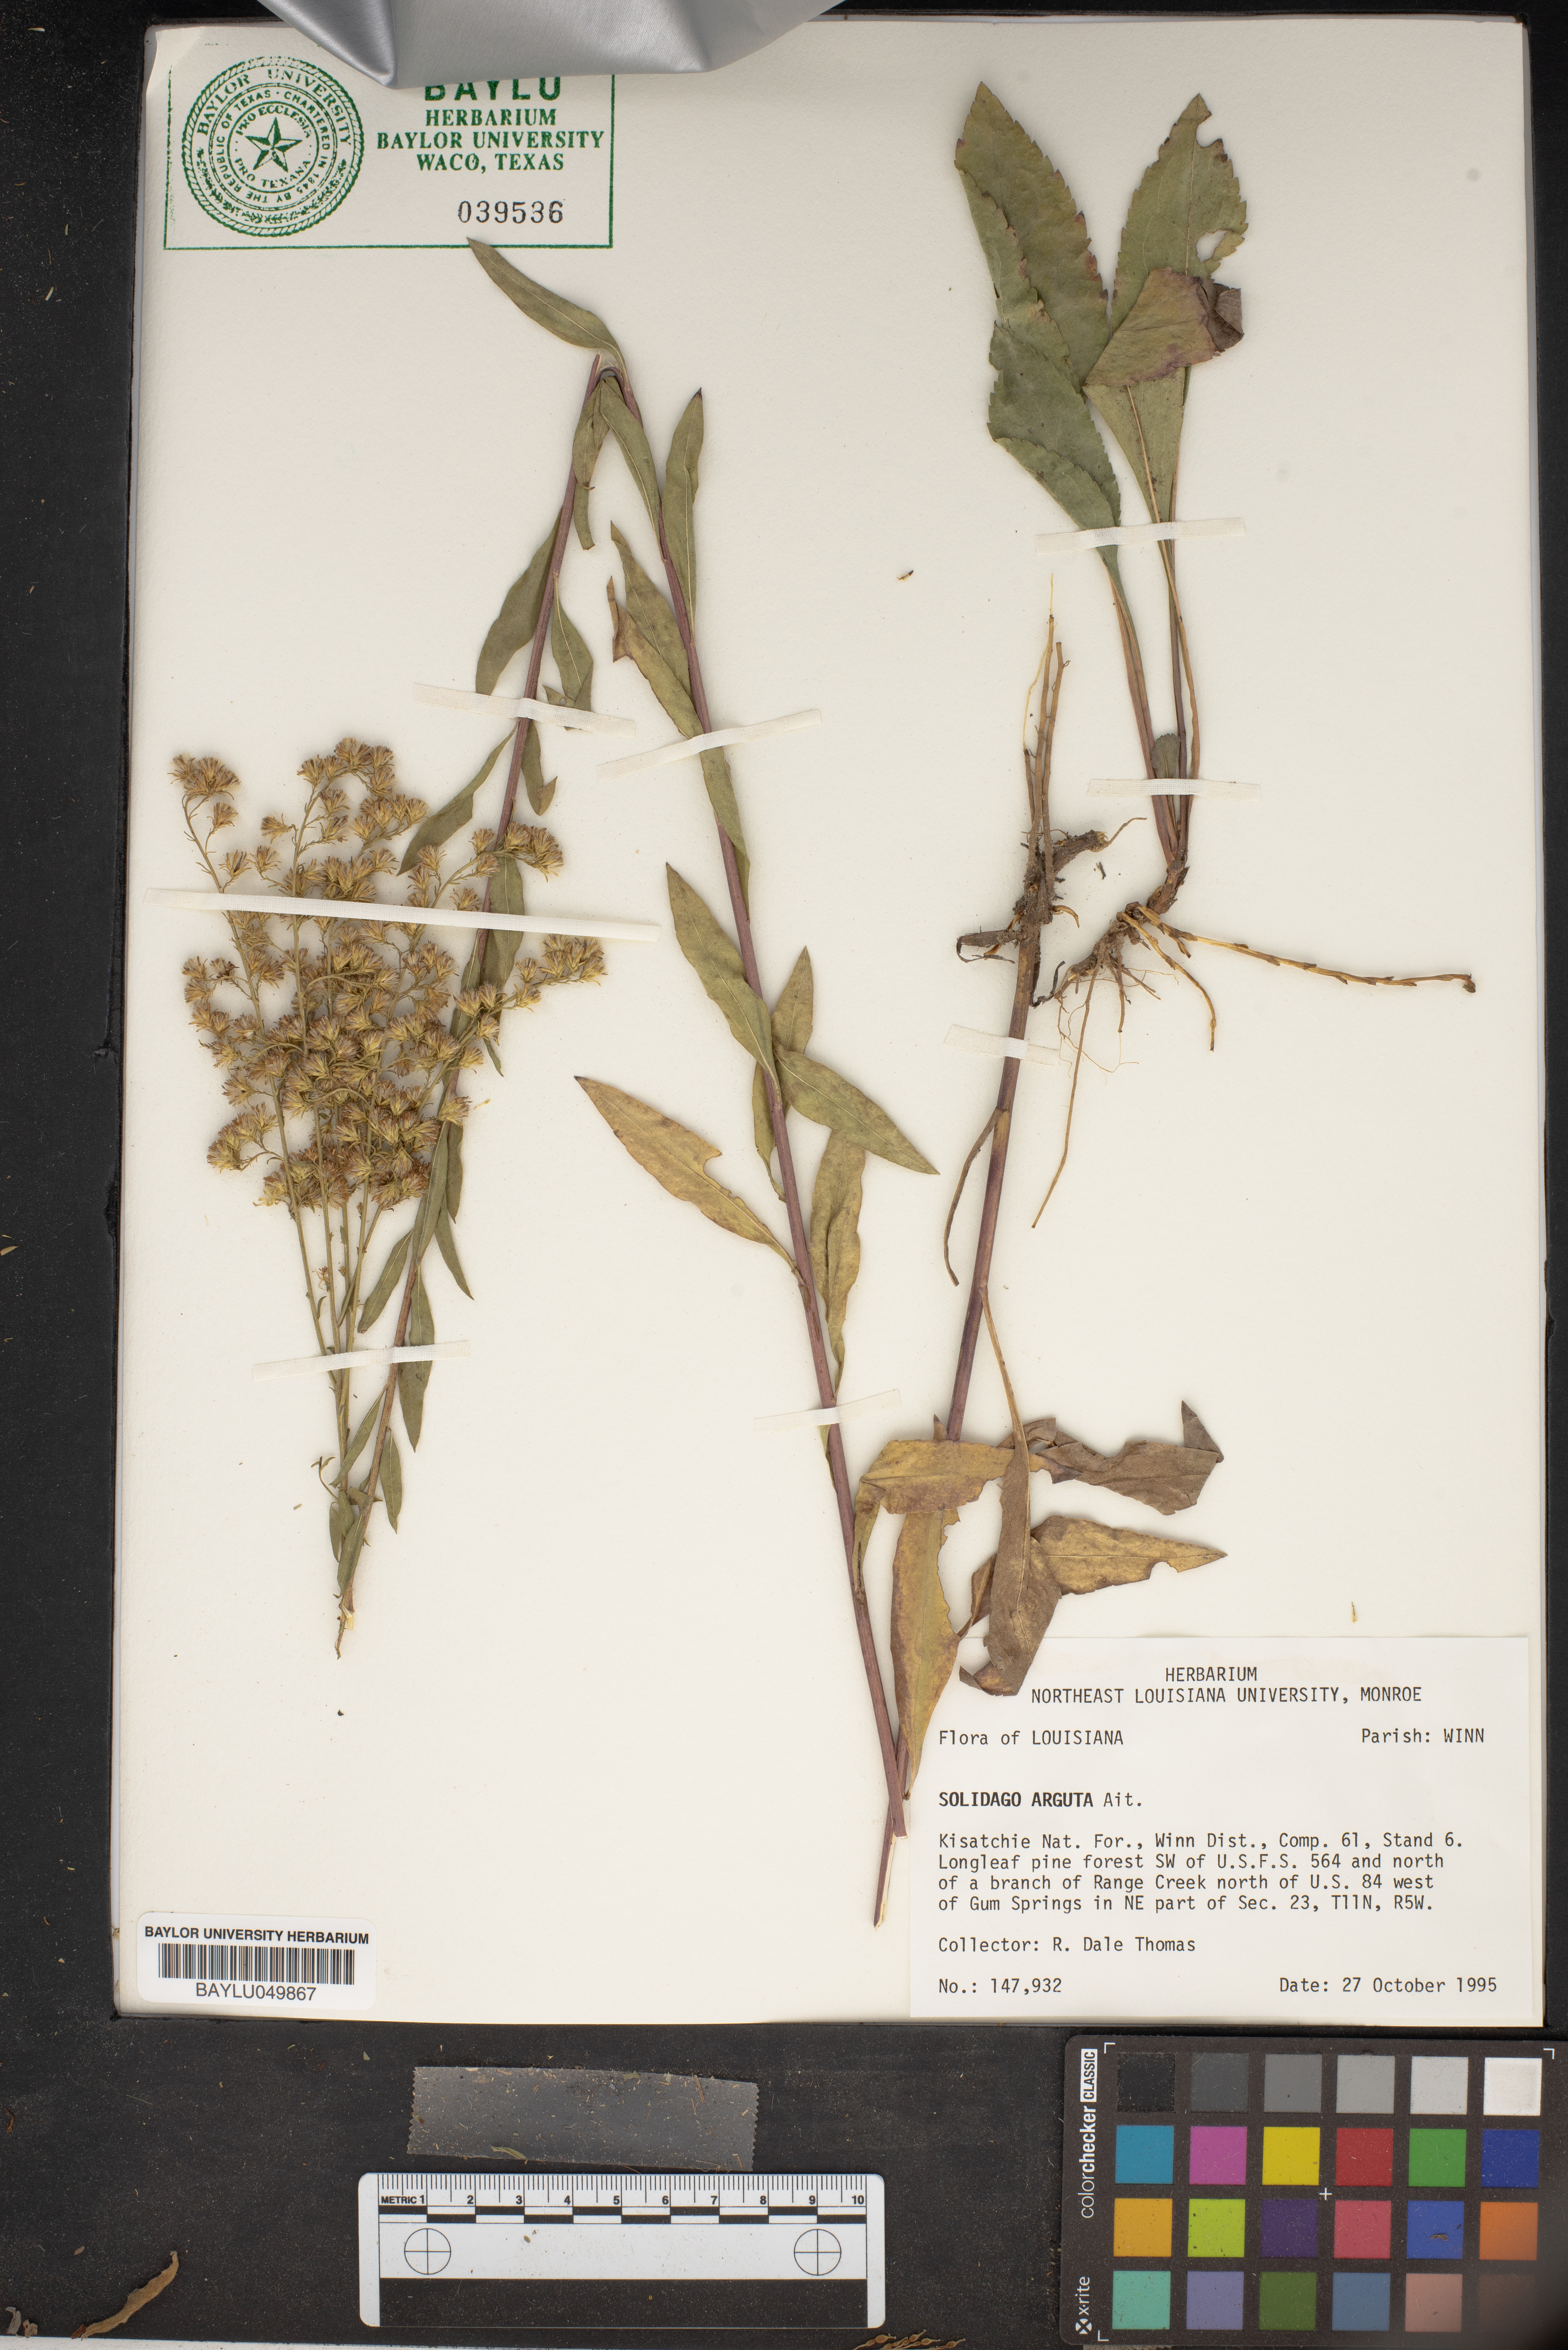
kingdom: Plantae
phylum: Tracheophyta
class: Magnoliopsida
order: Asterales
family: Asteraceae
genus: Solidago
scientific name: Solidago arguta
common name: Atlantic goldenrod
